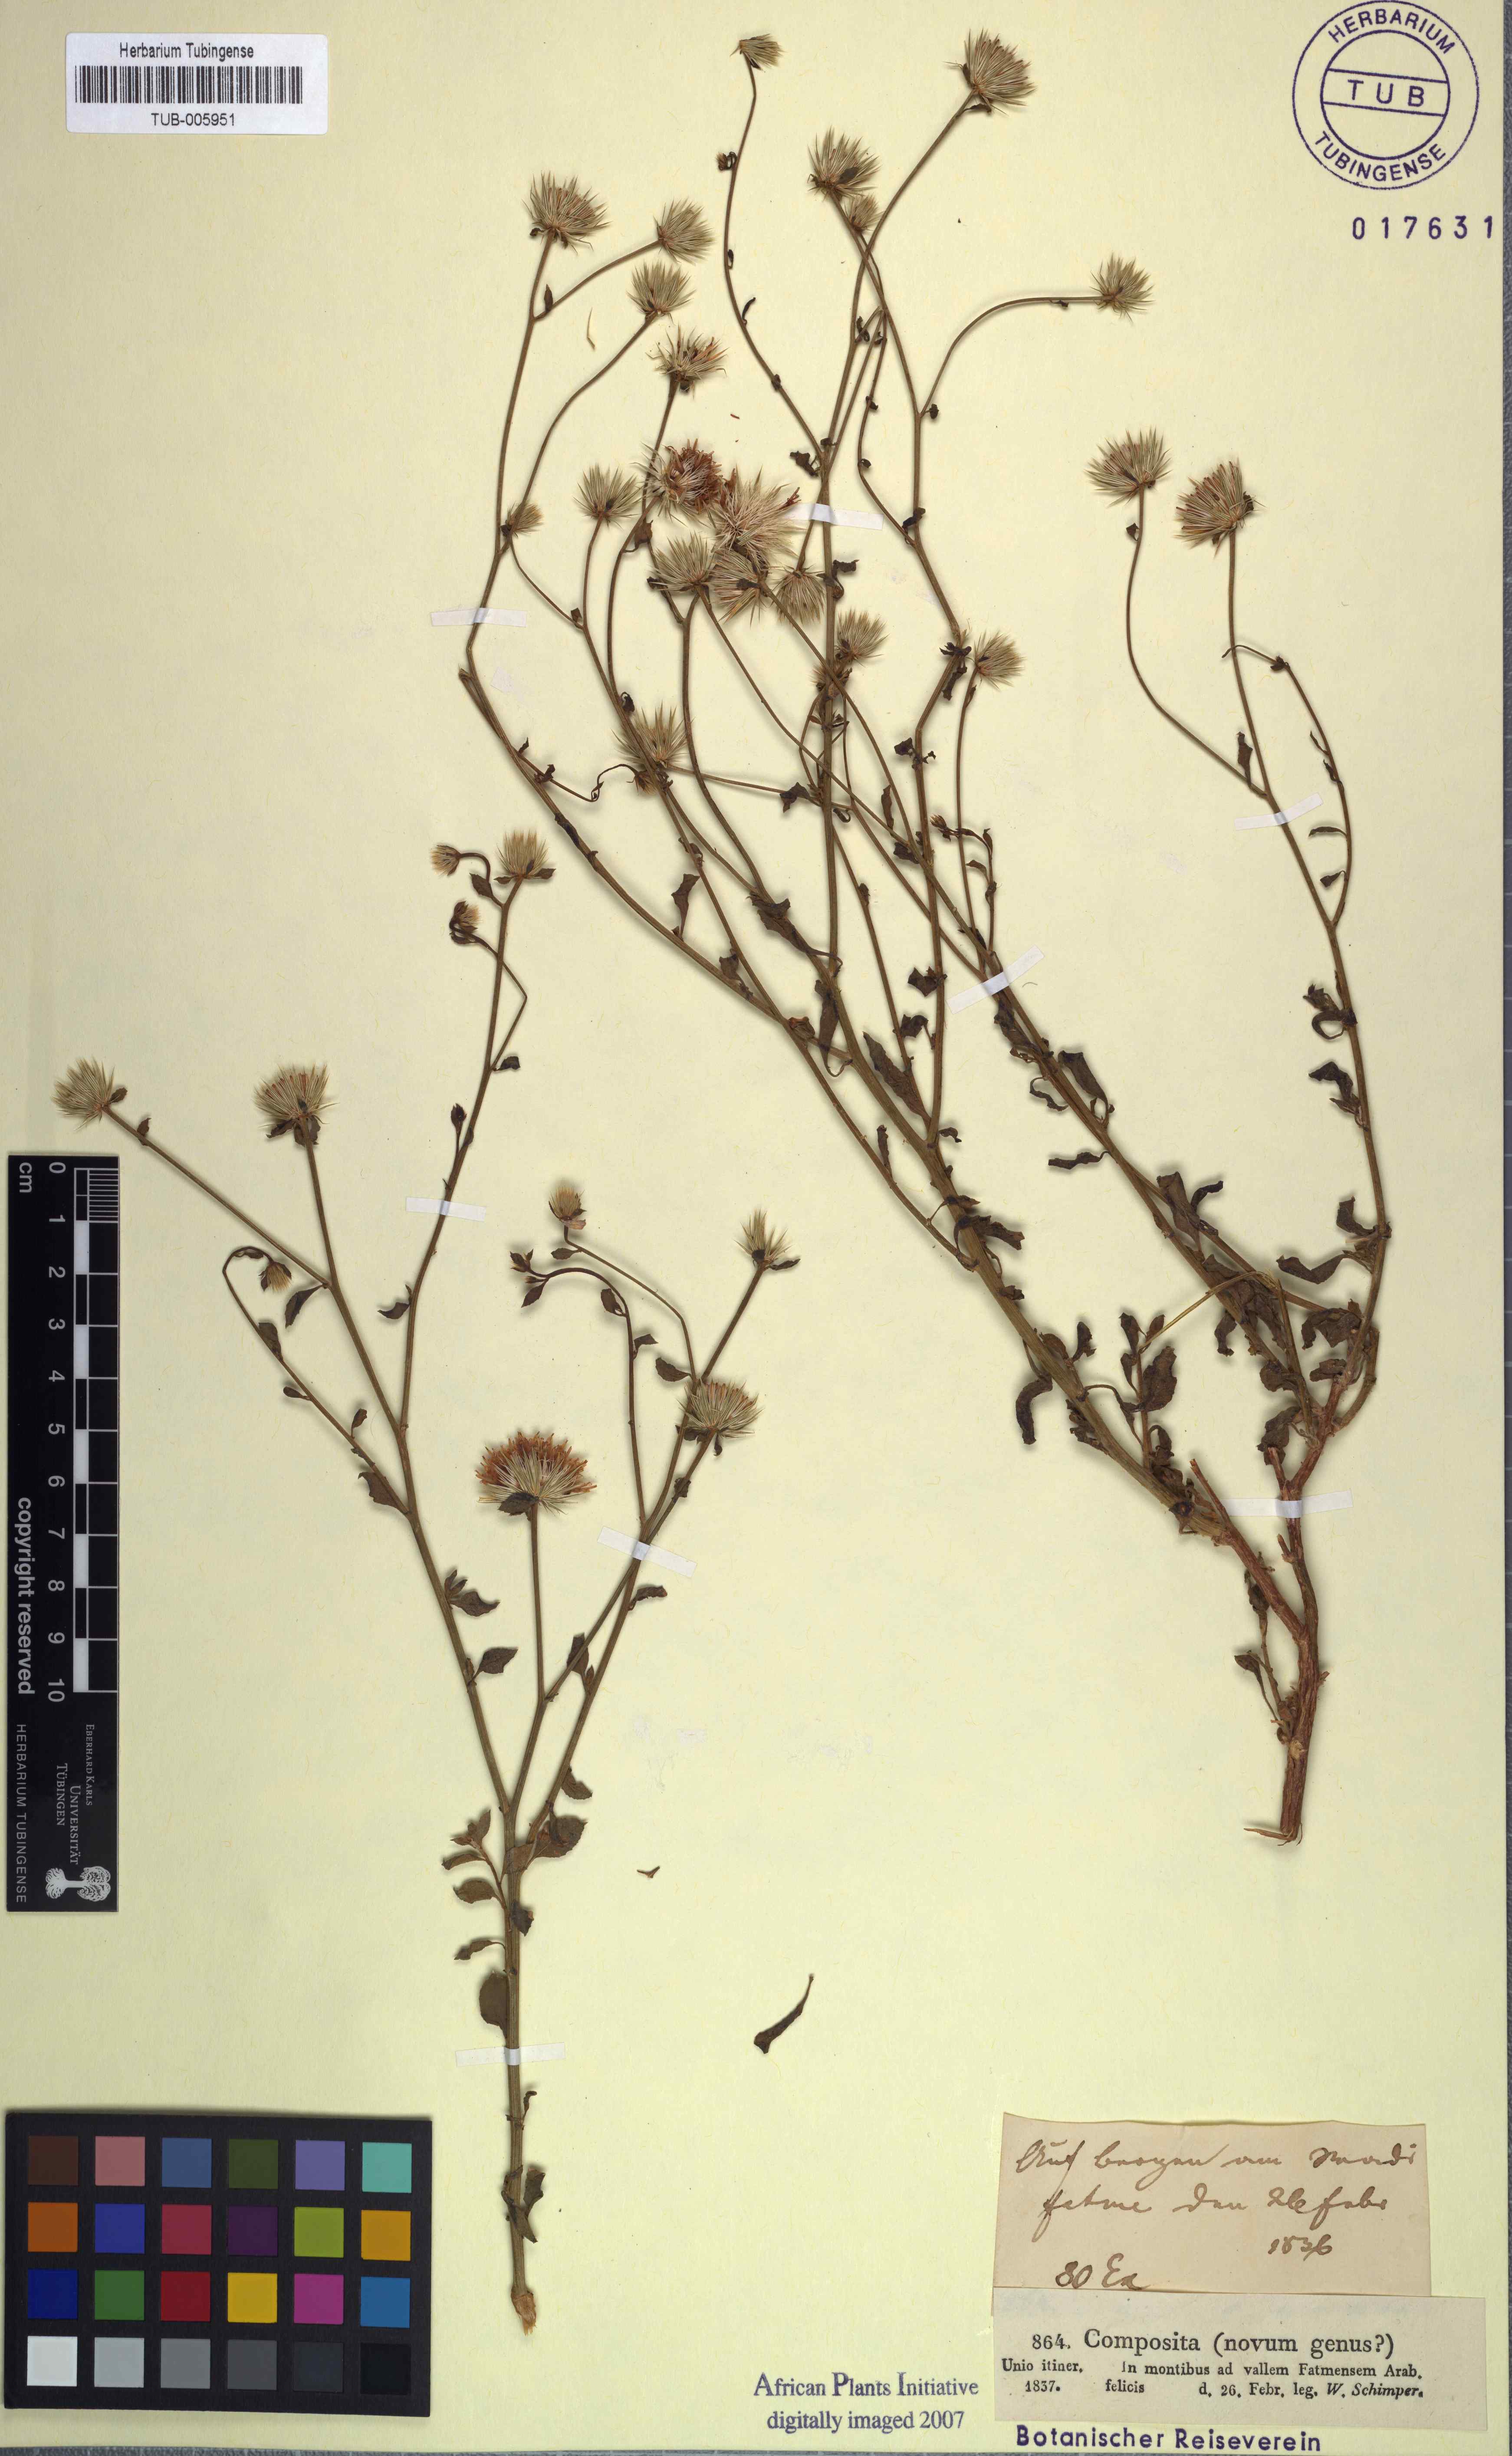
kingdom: Plantae
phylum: Tracheophyta
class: Magnoliopsida
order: Asterales
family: Asteraceae
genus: Dicoma
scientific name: Dicoma schimperi
